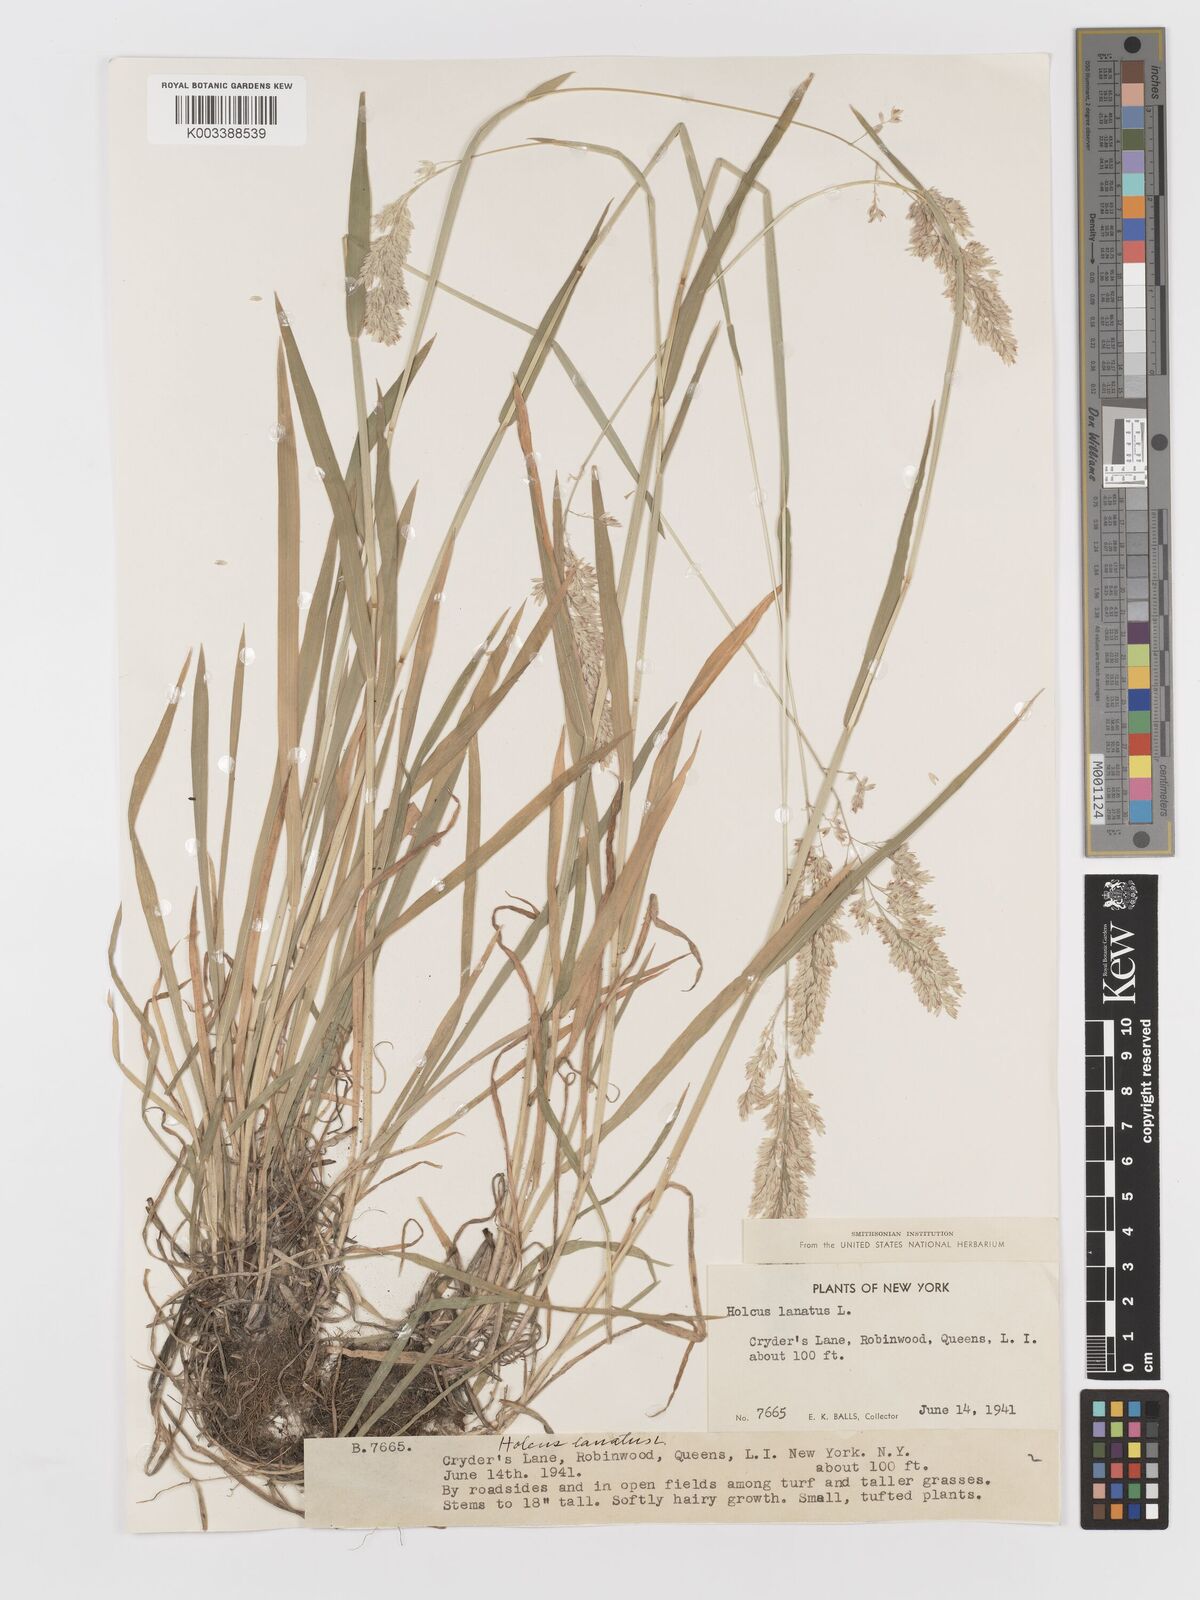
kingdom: Plantae
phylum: Tracheophyta
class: Liliopsida
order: Poales
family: Poaceae
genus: Holcus
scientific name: Holcus lanatus
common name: Yorkshire-fog
